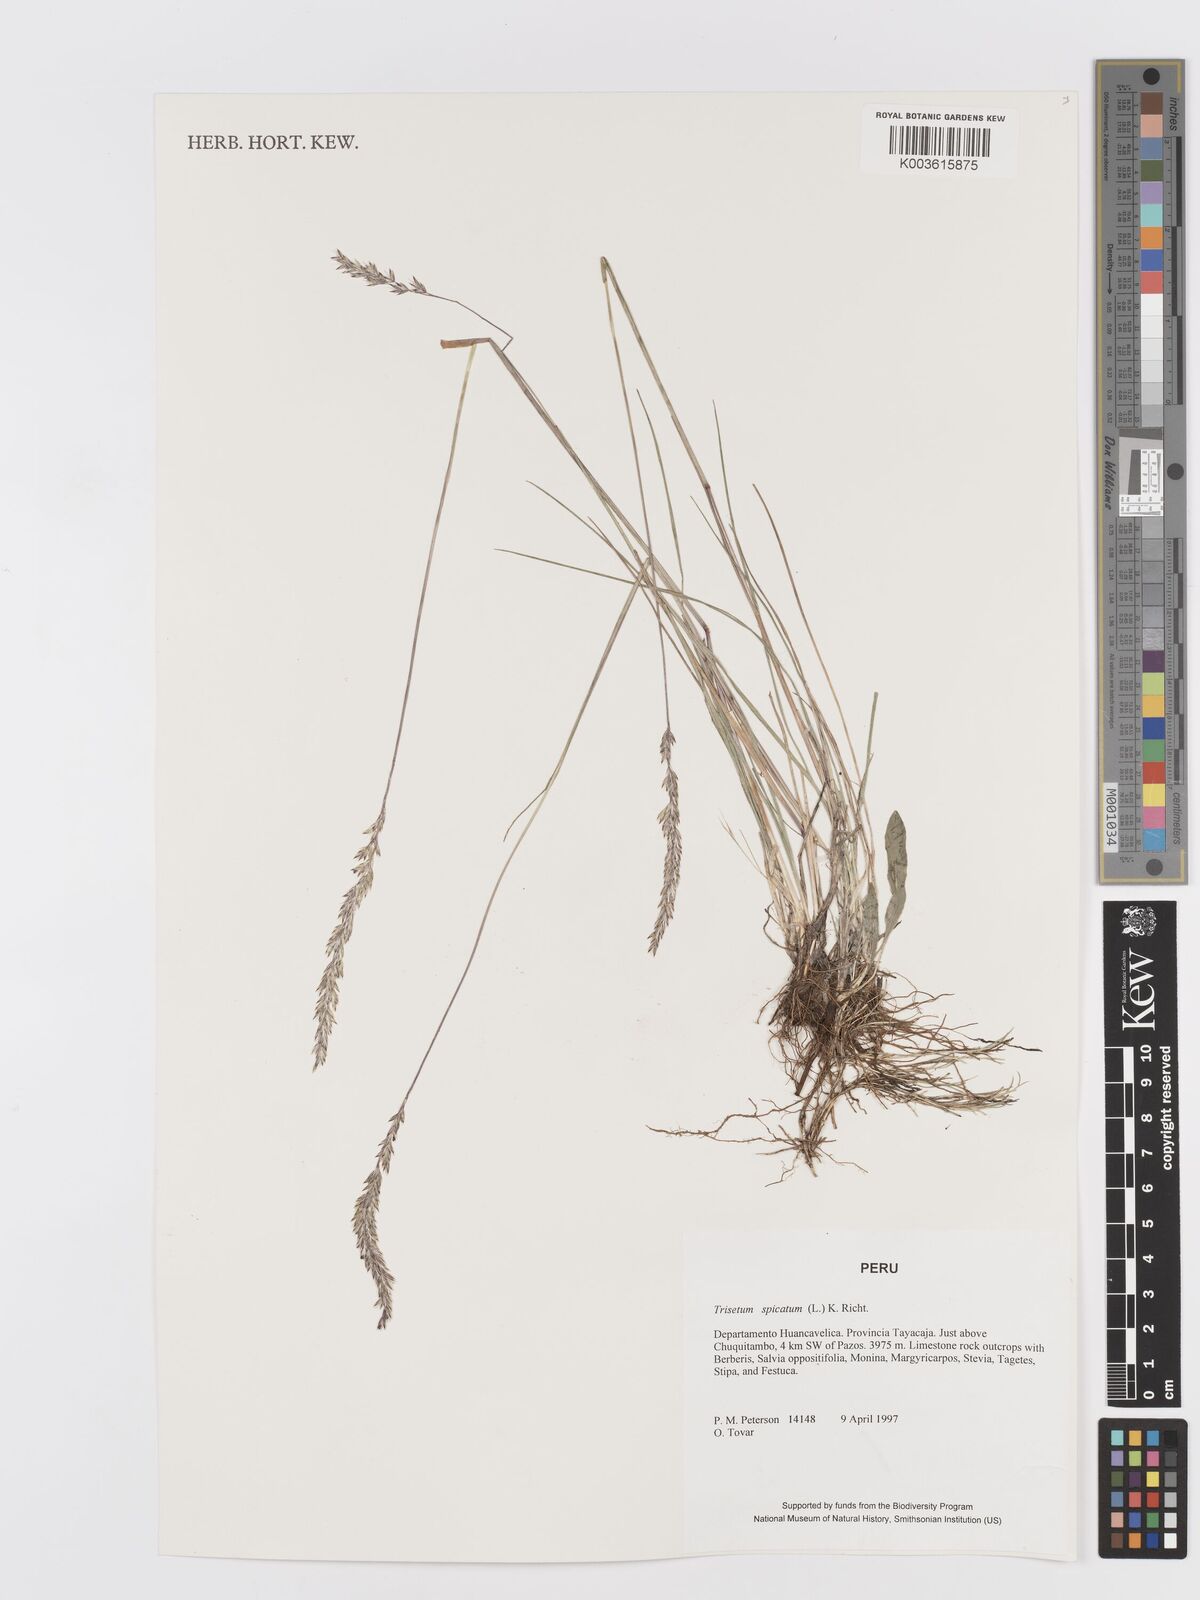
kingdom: Plantae
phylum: Tracheophyta
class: Liliopsida
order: Poales
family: Poaceae
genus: Koeleria
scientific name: Koeleria spicata
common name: Mountain trisetum
